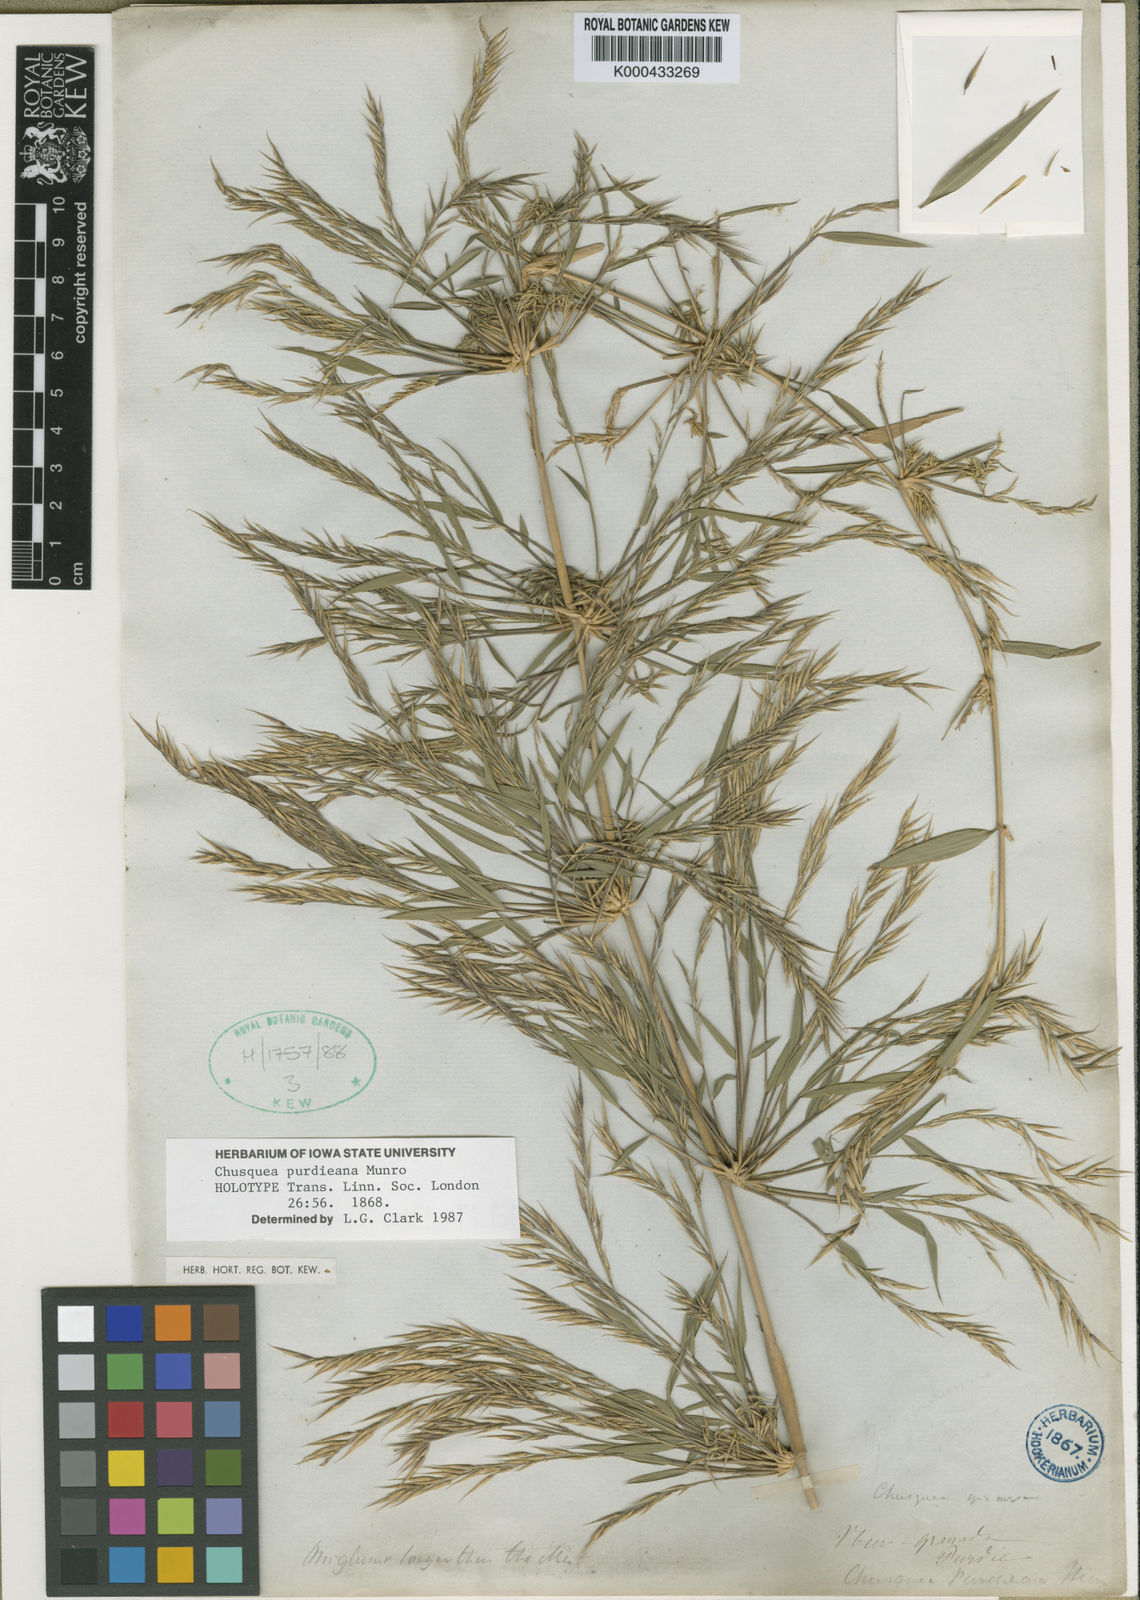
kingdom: Plantae
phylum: Tracheophyta
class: Liliopsida
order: Poales
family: Poaceae
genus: Chusquea
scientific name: Chusquea purdieana
